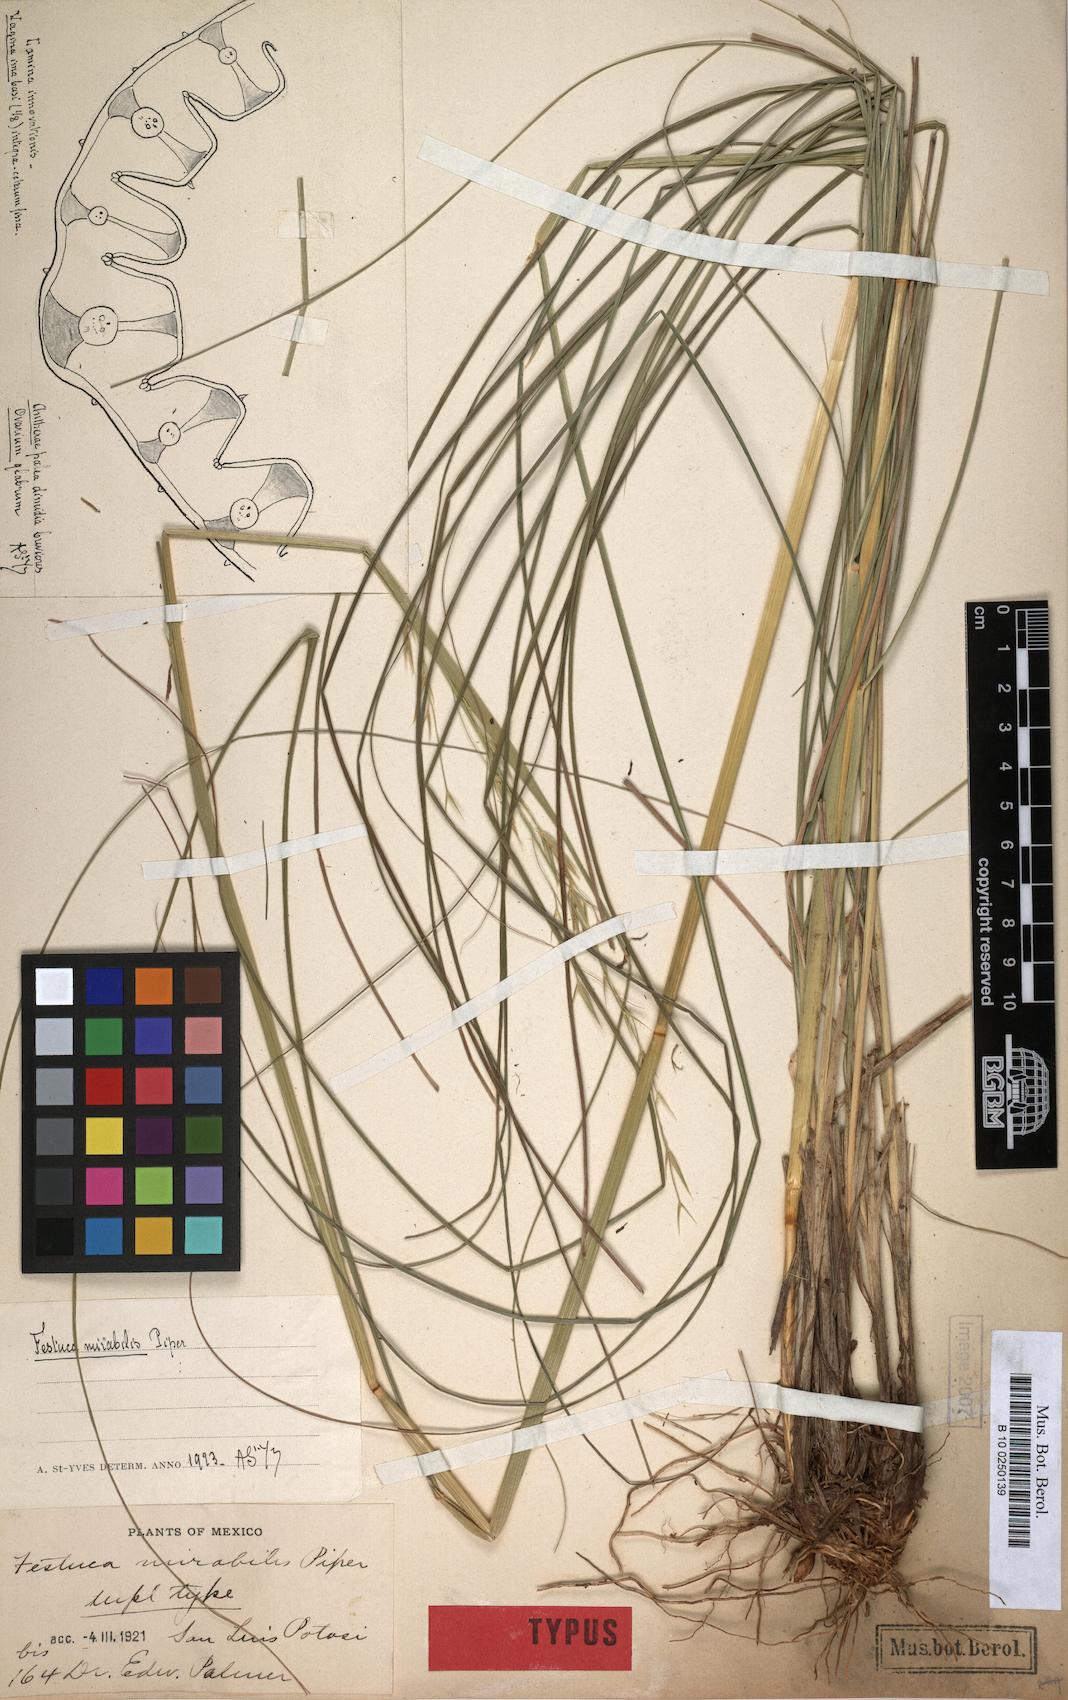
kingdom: Plantae
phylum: Tracheophyta
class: Liliopsida
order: Poales
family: Poaceae
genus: Festuca
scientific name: Festuca lugens
